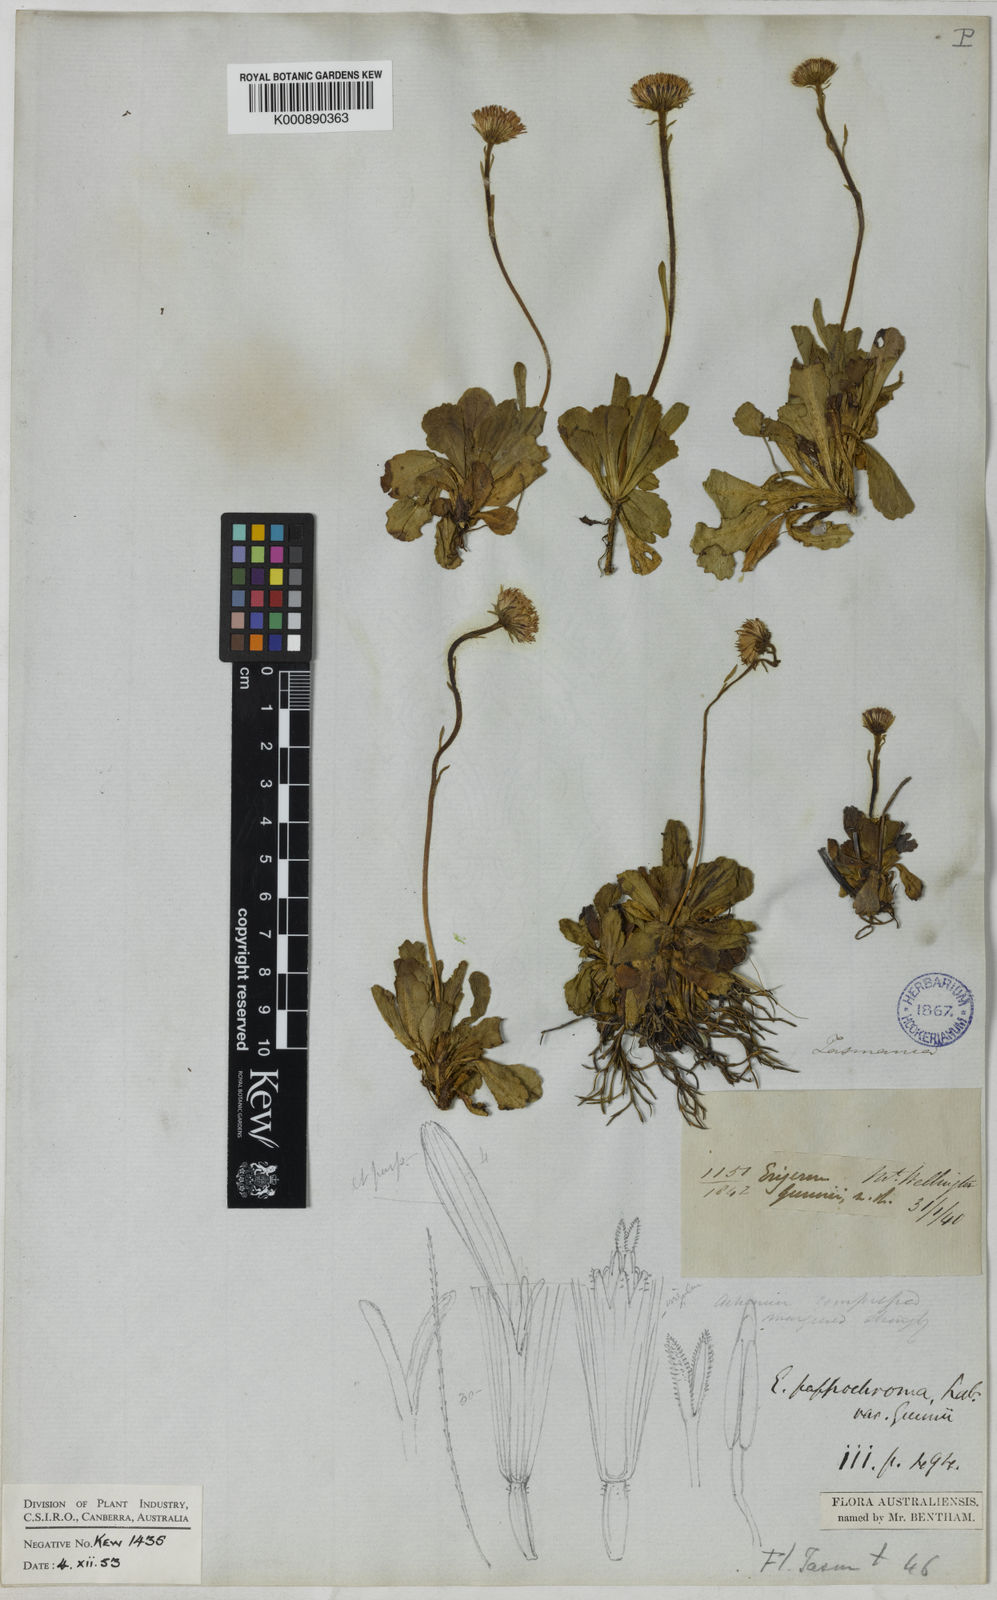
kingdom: Plantae
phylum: Tracheophyta
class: Magnoliopsida
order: Asterales
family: Asteraceae
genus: Pappochroma
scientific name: Pappochroma gunnii
